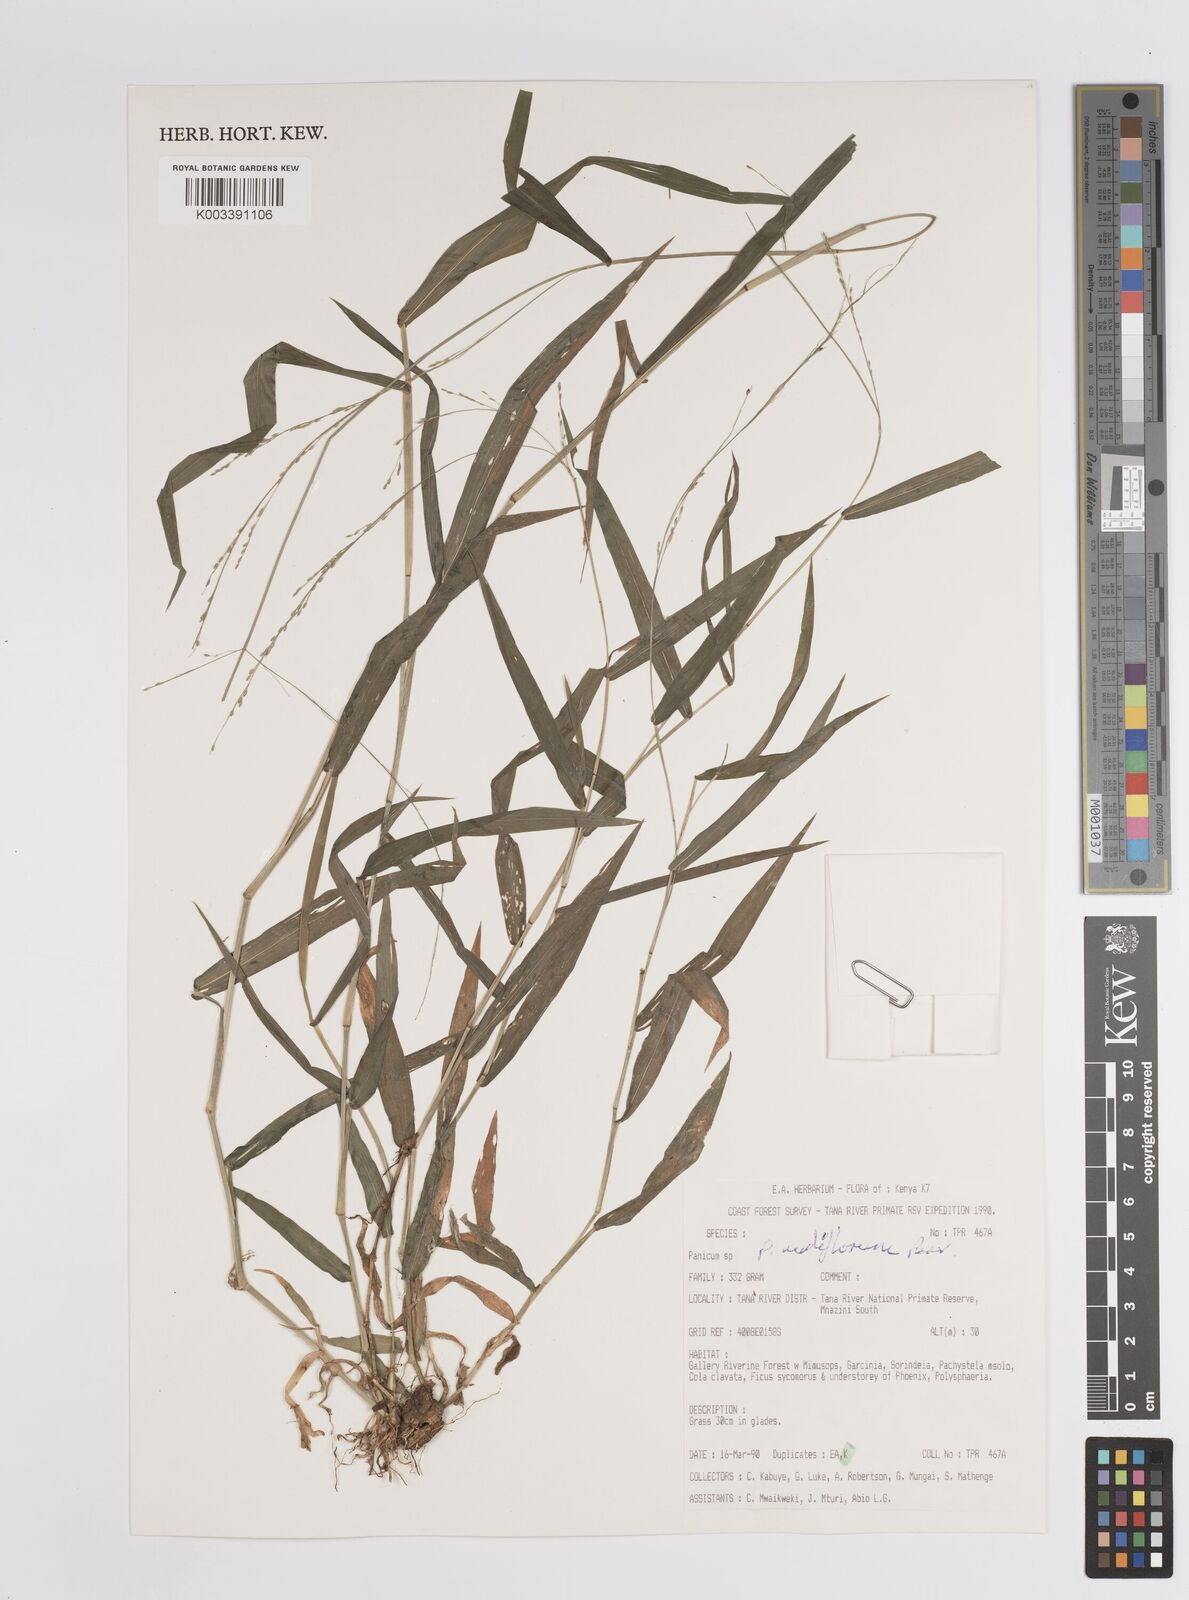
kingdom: Plantae
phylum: Tracheophyta
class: Liliopsida
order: Poales
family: Poaceae
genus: Panicum
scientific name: Panicum nudiflorum
